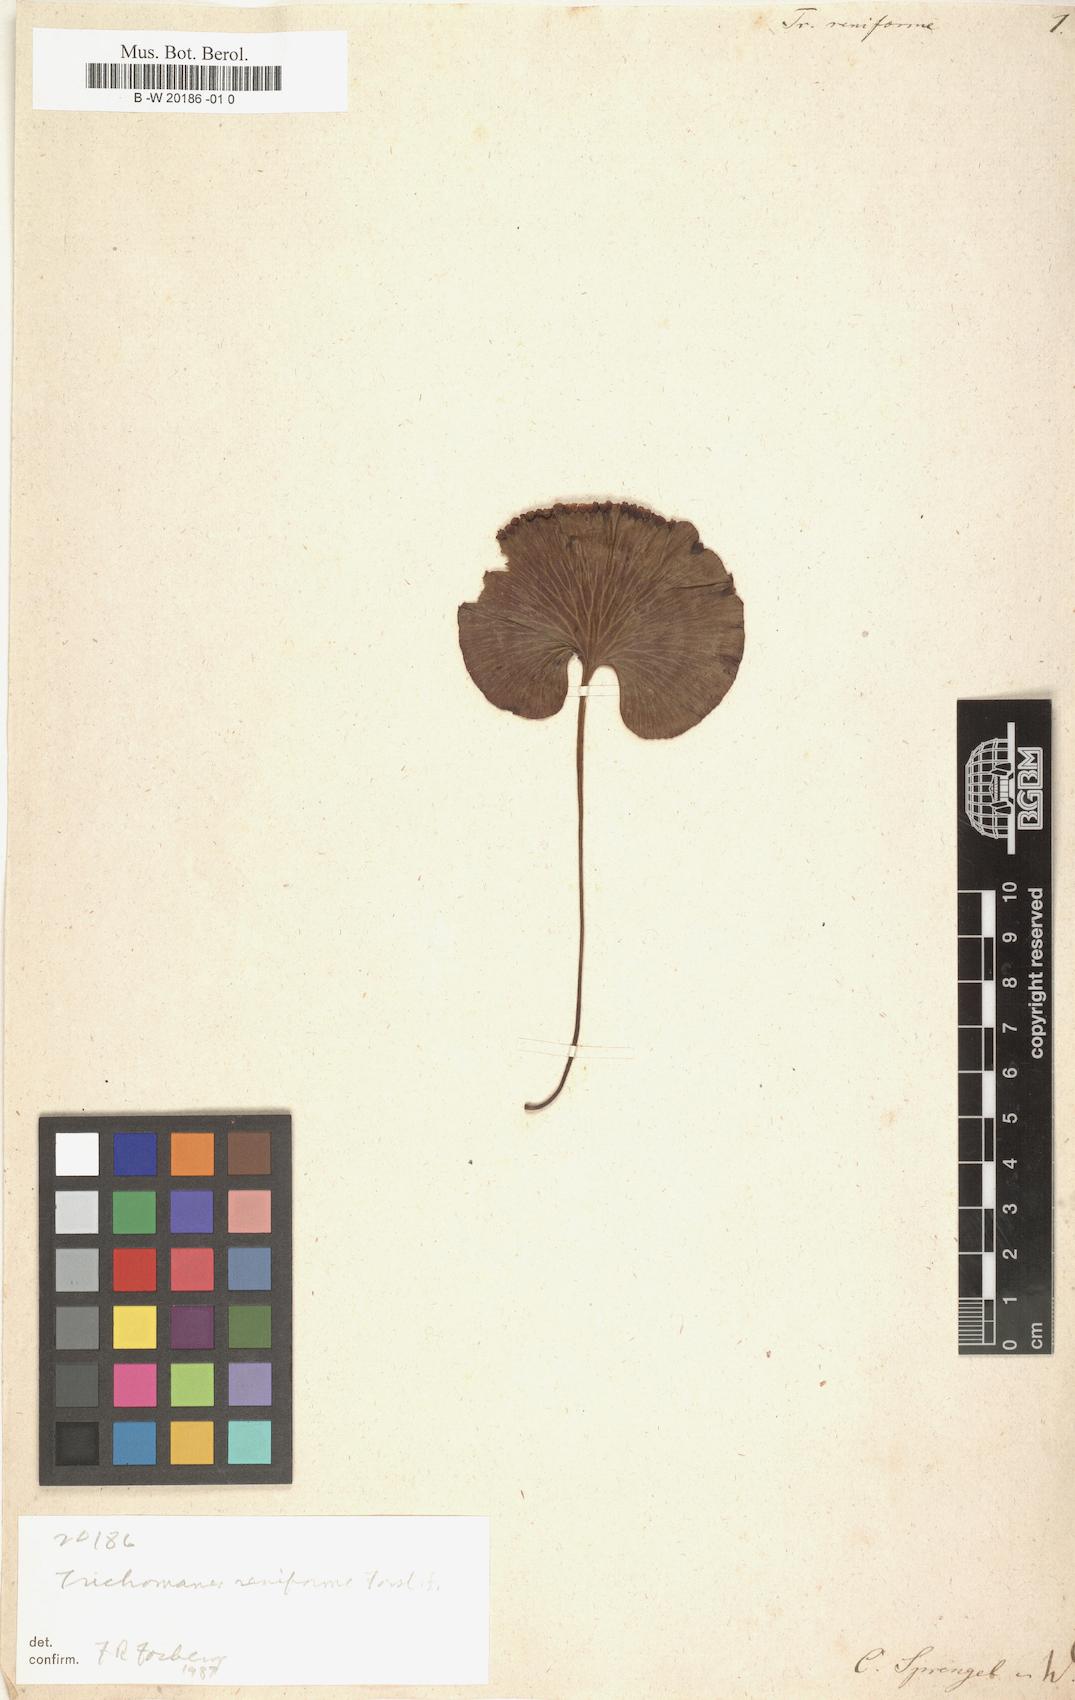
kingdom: Plantae
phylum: Tracheophyta
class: Polypodiopsida
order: Hymenophyllales
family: Hymenophyllaceae
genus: Hymenophyllum
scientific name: Hymenophyllum nephrophyllum
